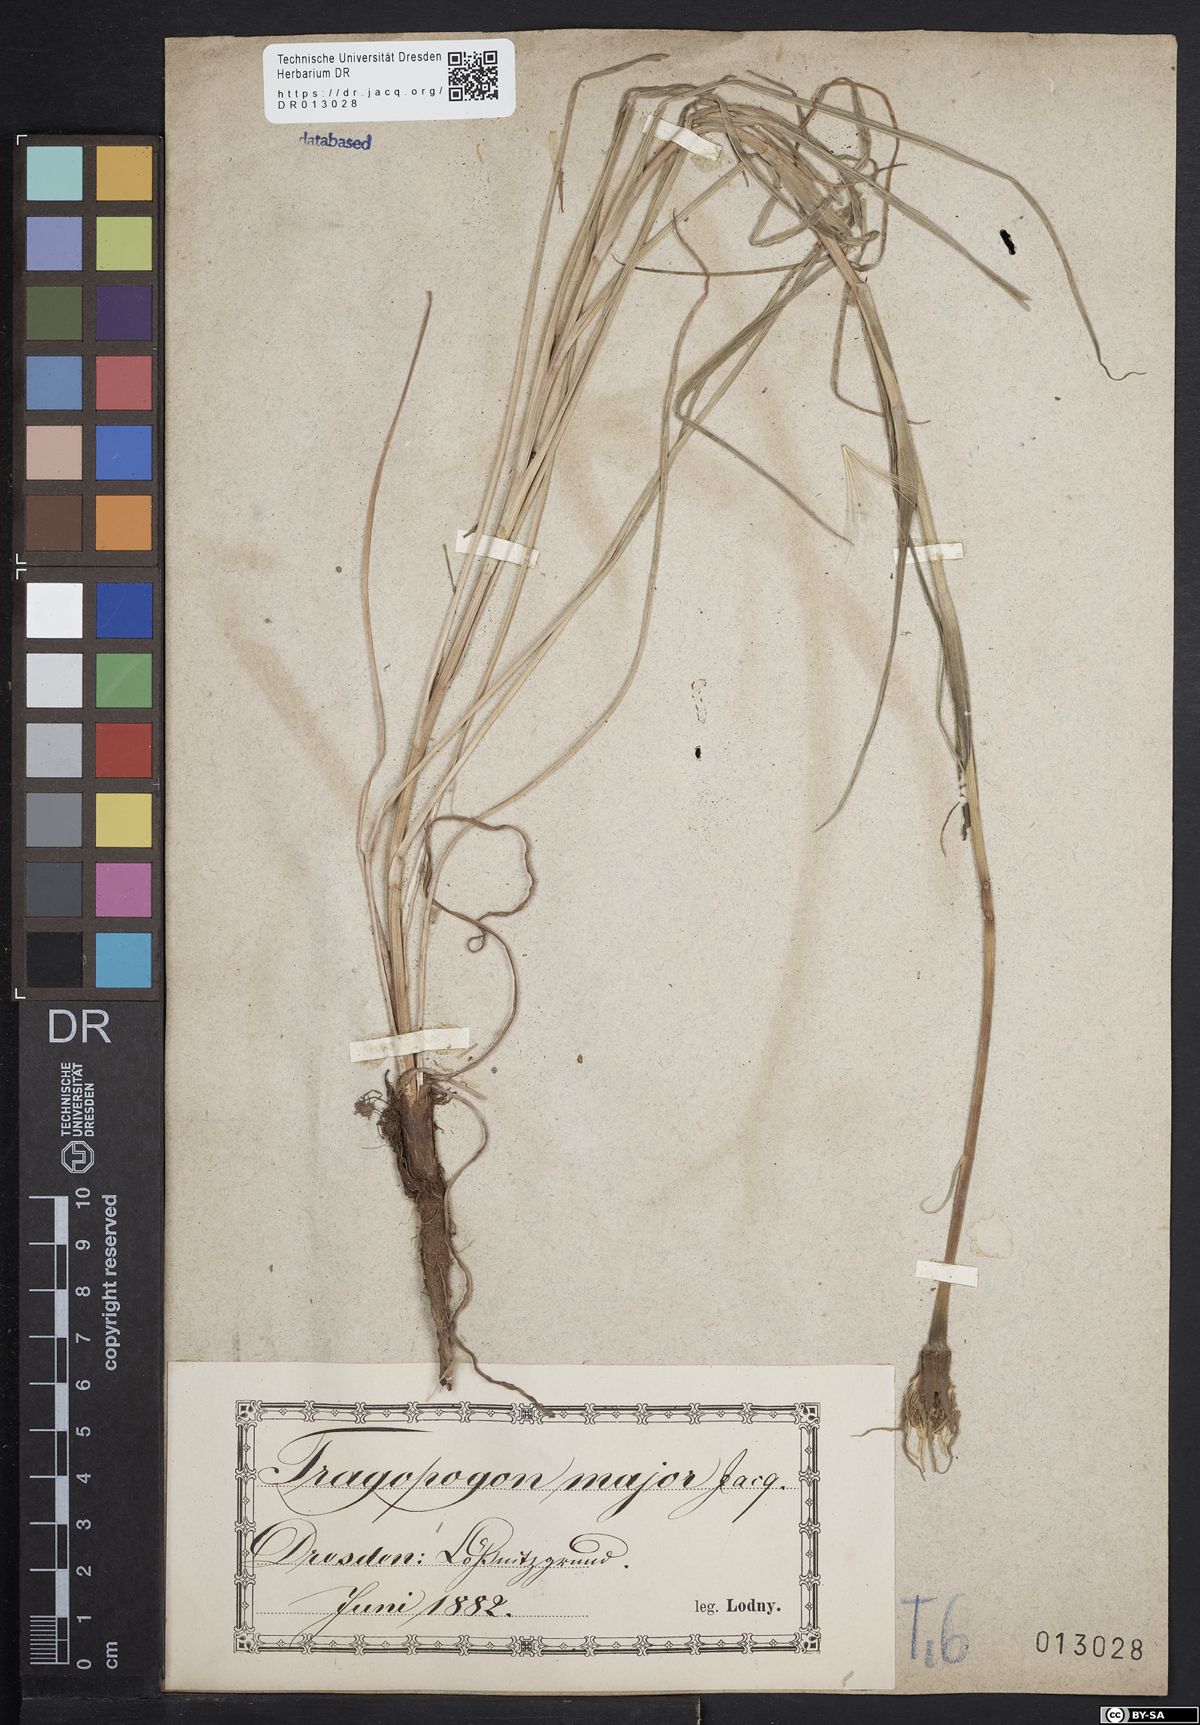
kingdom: Plantae
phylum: Tracheophyta
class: Magnoliopsida
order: Asterales
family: Asteraceae
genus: Tragopogon
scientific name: Tragopogon dubius
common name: Yellow salsify
